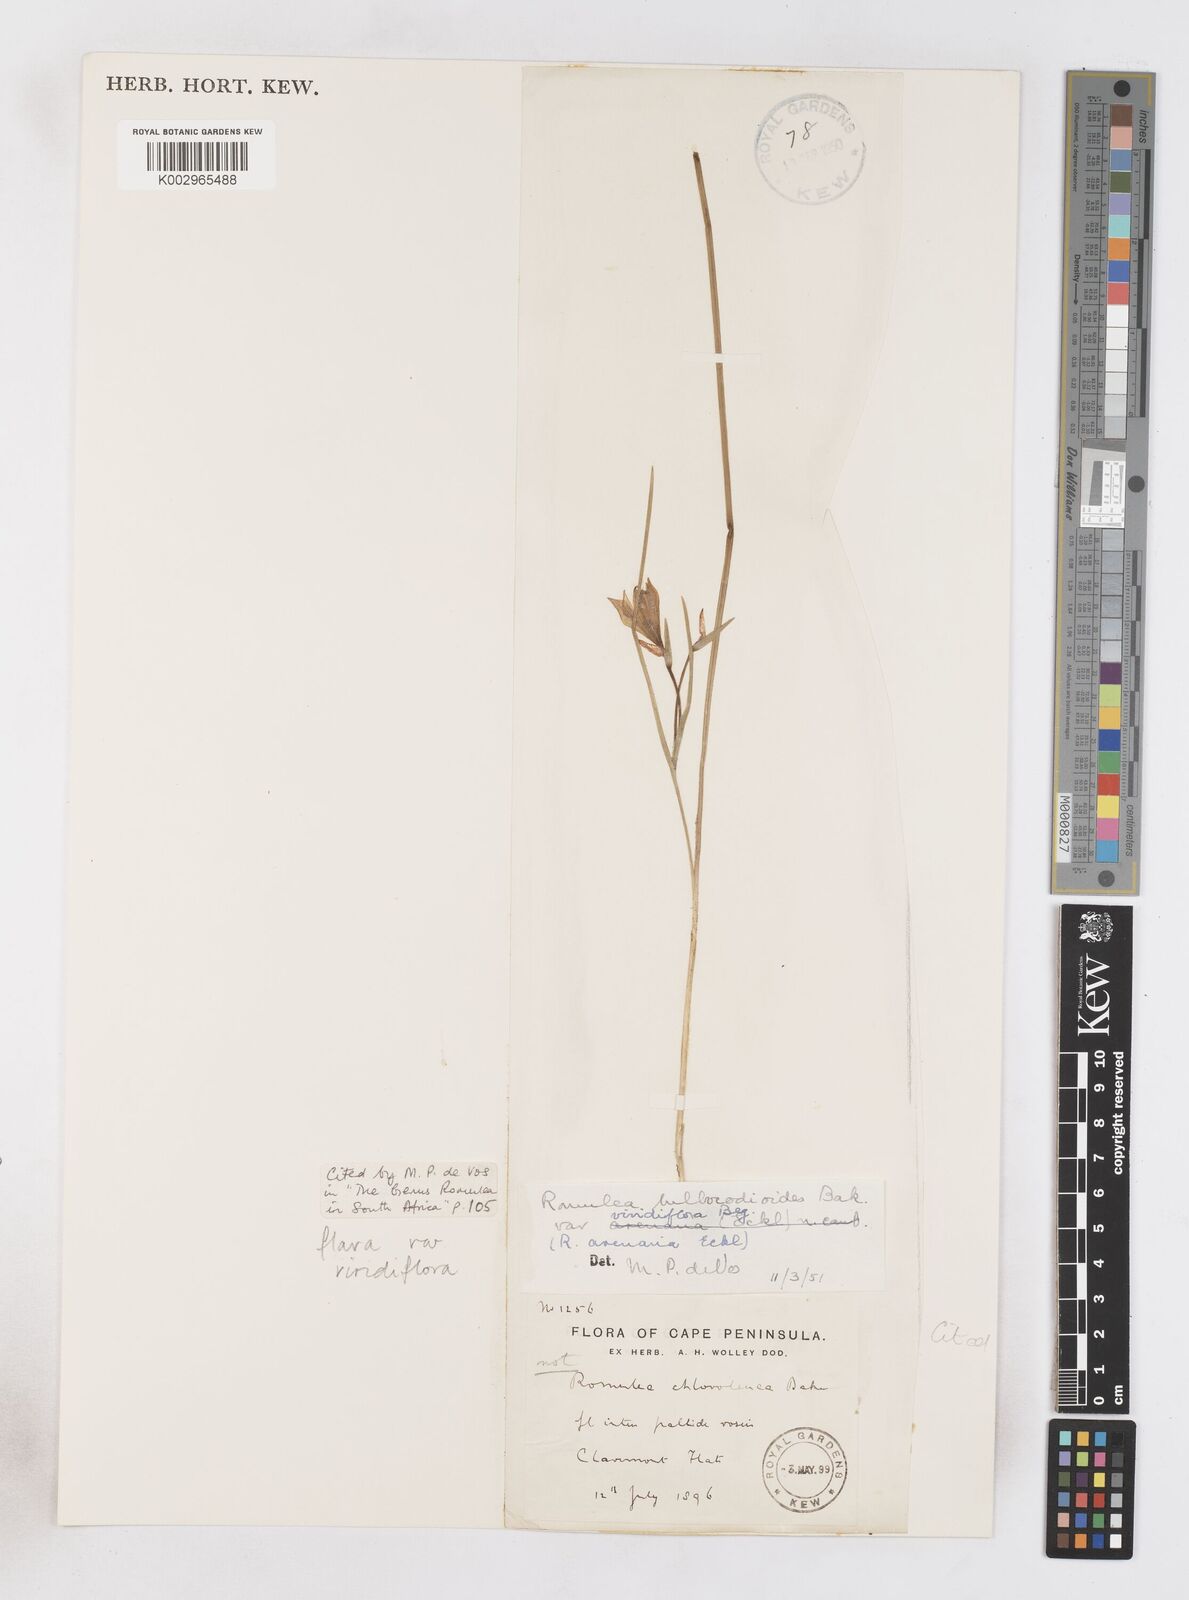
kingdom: Plantae
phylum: Tracheophyta
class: Liliopsida
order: Asparagales
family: Iridaceae
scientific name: Iridaceae
